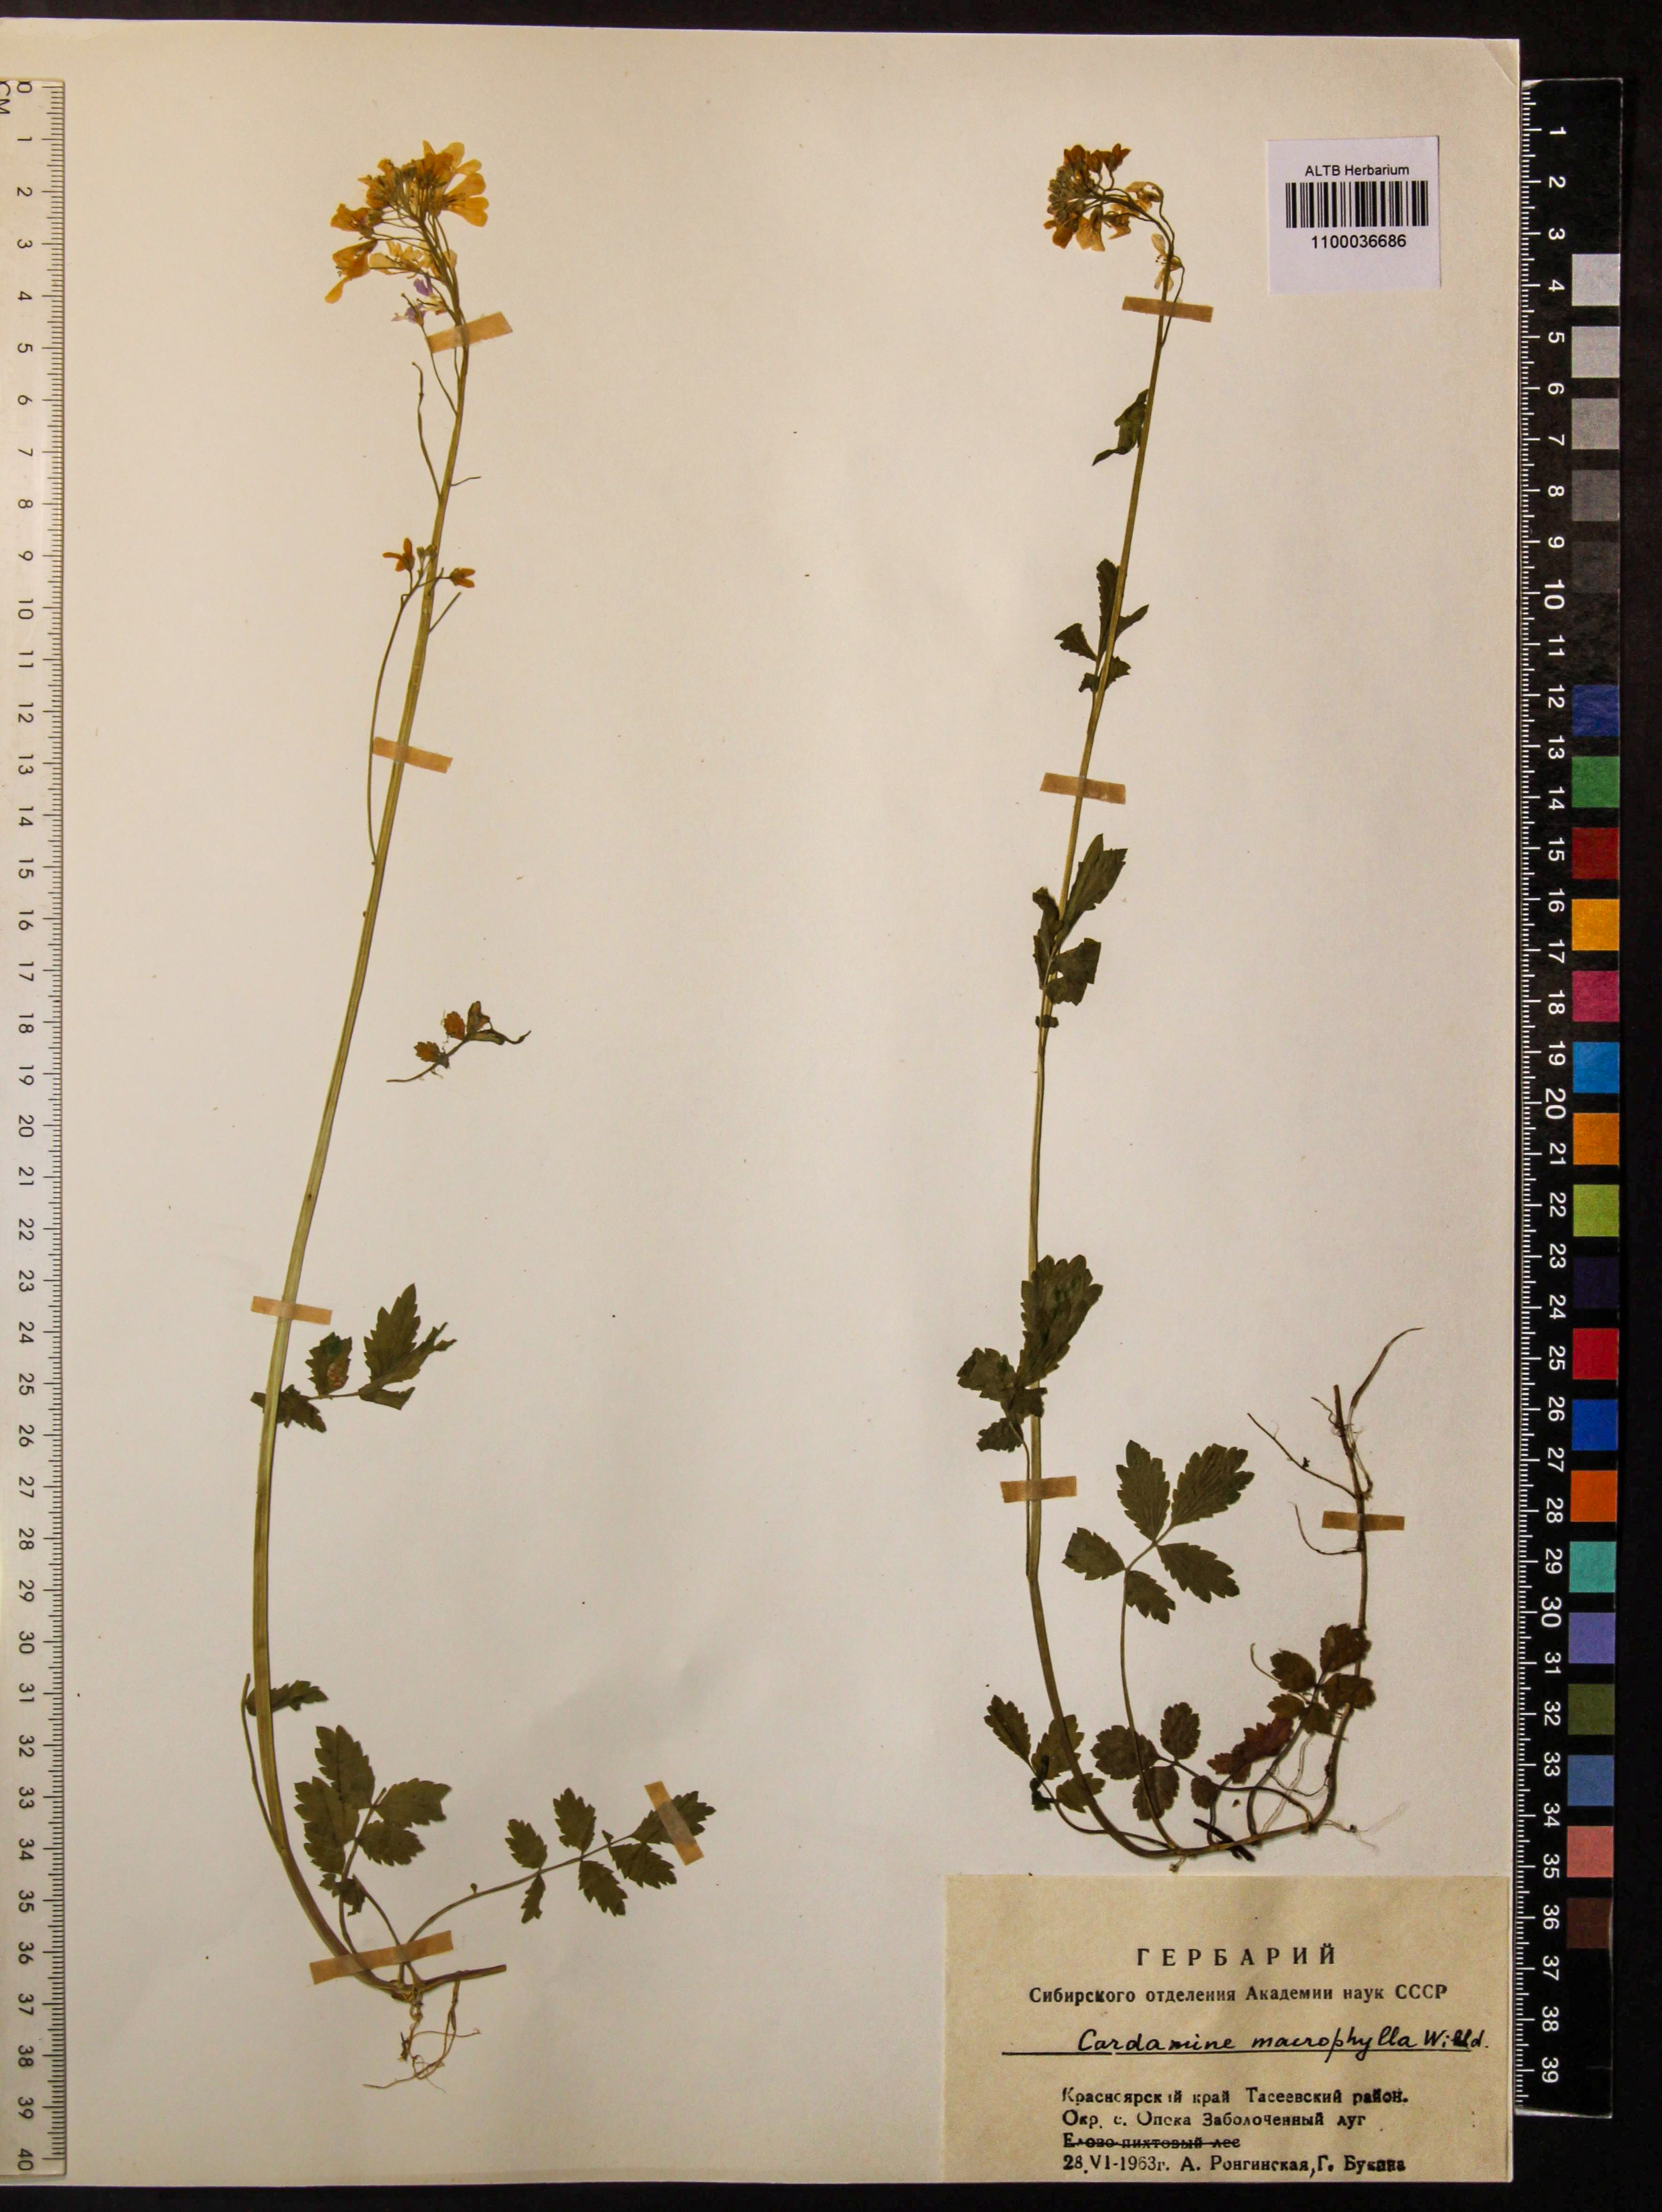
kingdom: Plantae
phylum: Tracheophyta
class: Magnoliopsida
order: Brassicales
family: Brassicaceae
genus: Cardamine
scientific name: Cardamine macrophylla
